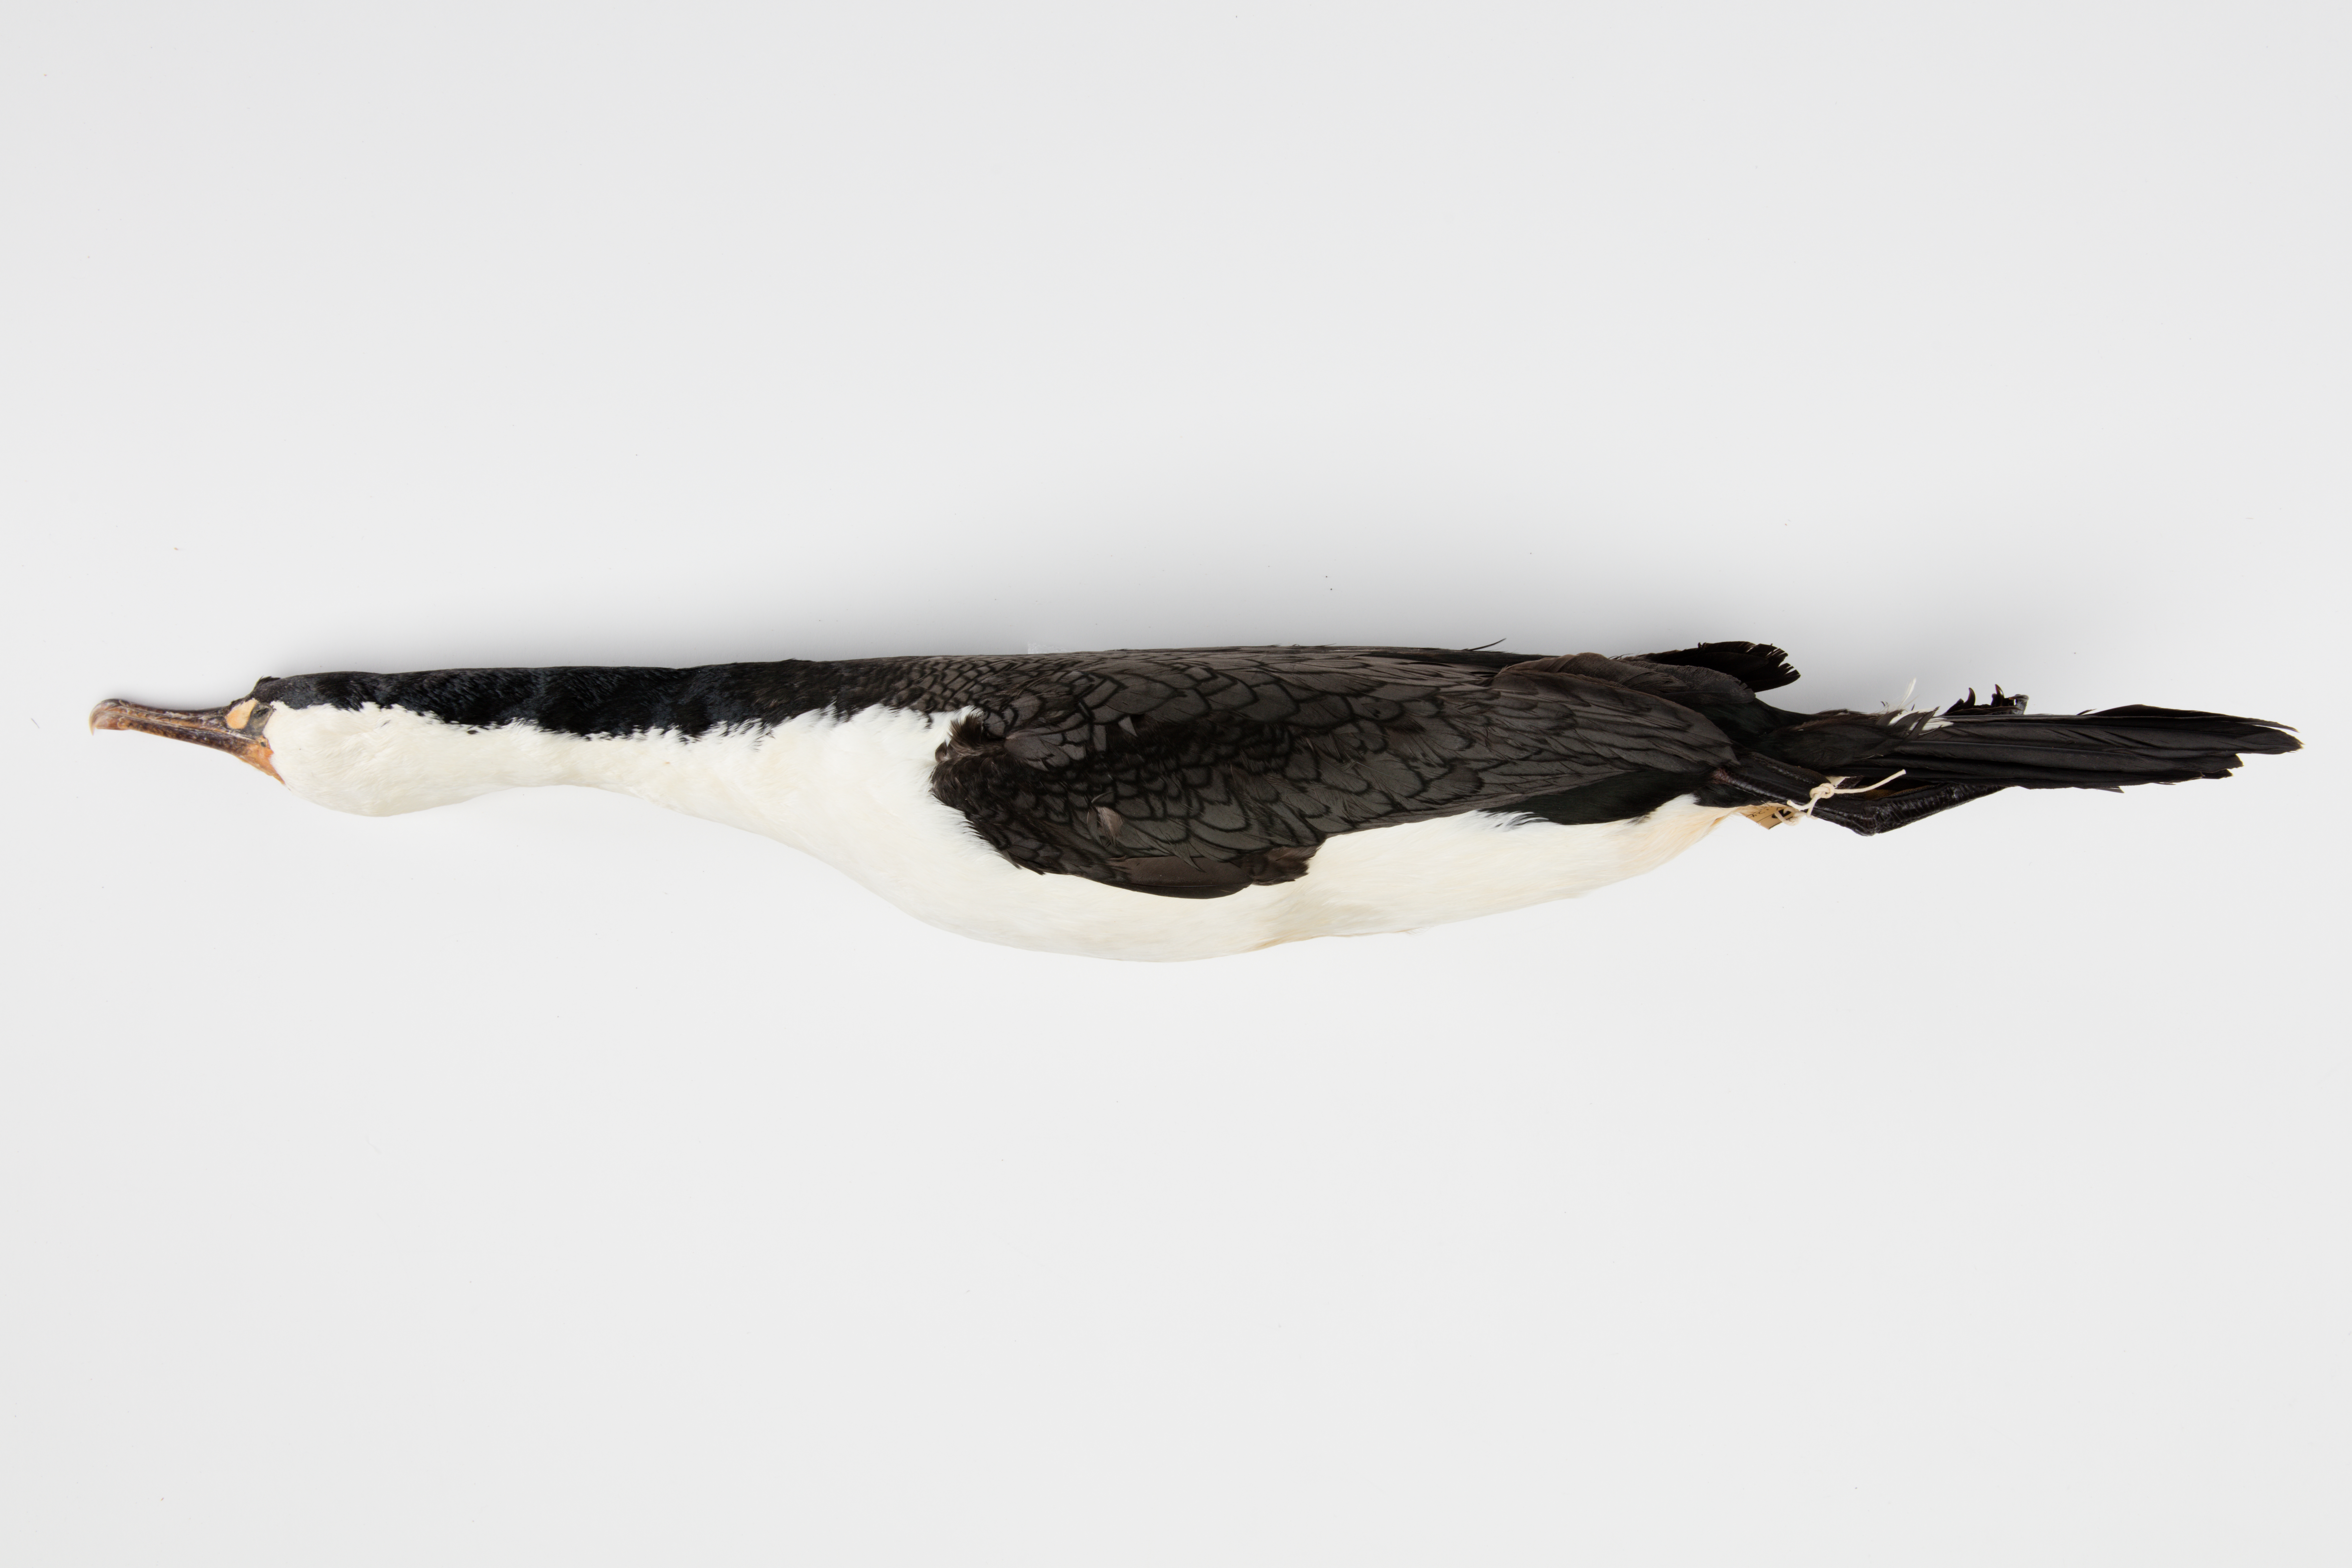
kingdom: Animalia
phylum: Chordata
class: Aves
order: Suliformes
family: Phalacrocoracidae
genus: Phalacrocorax
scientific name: Phalacrocorax varius
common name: Pied cormorant
